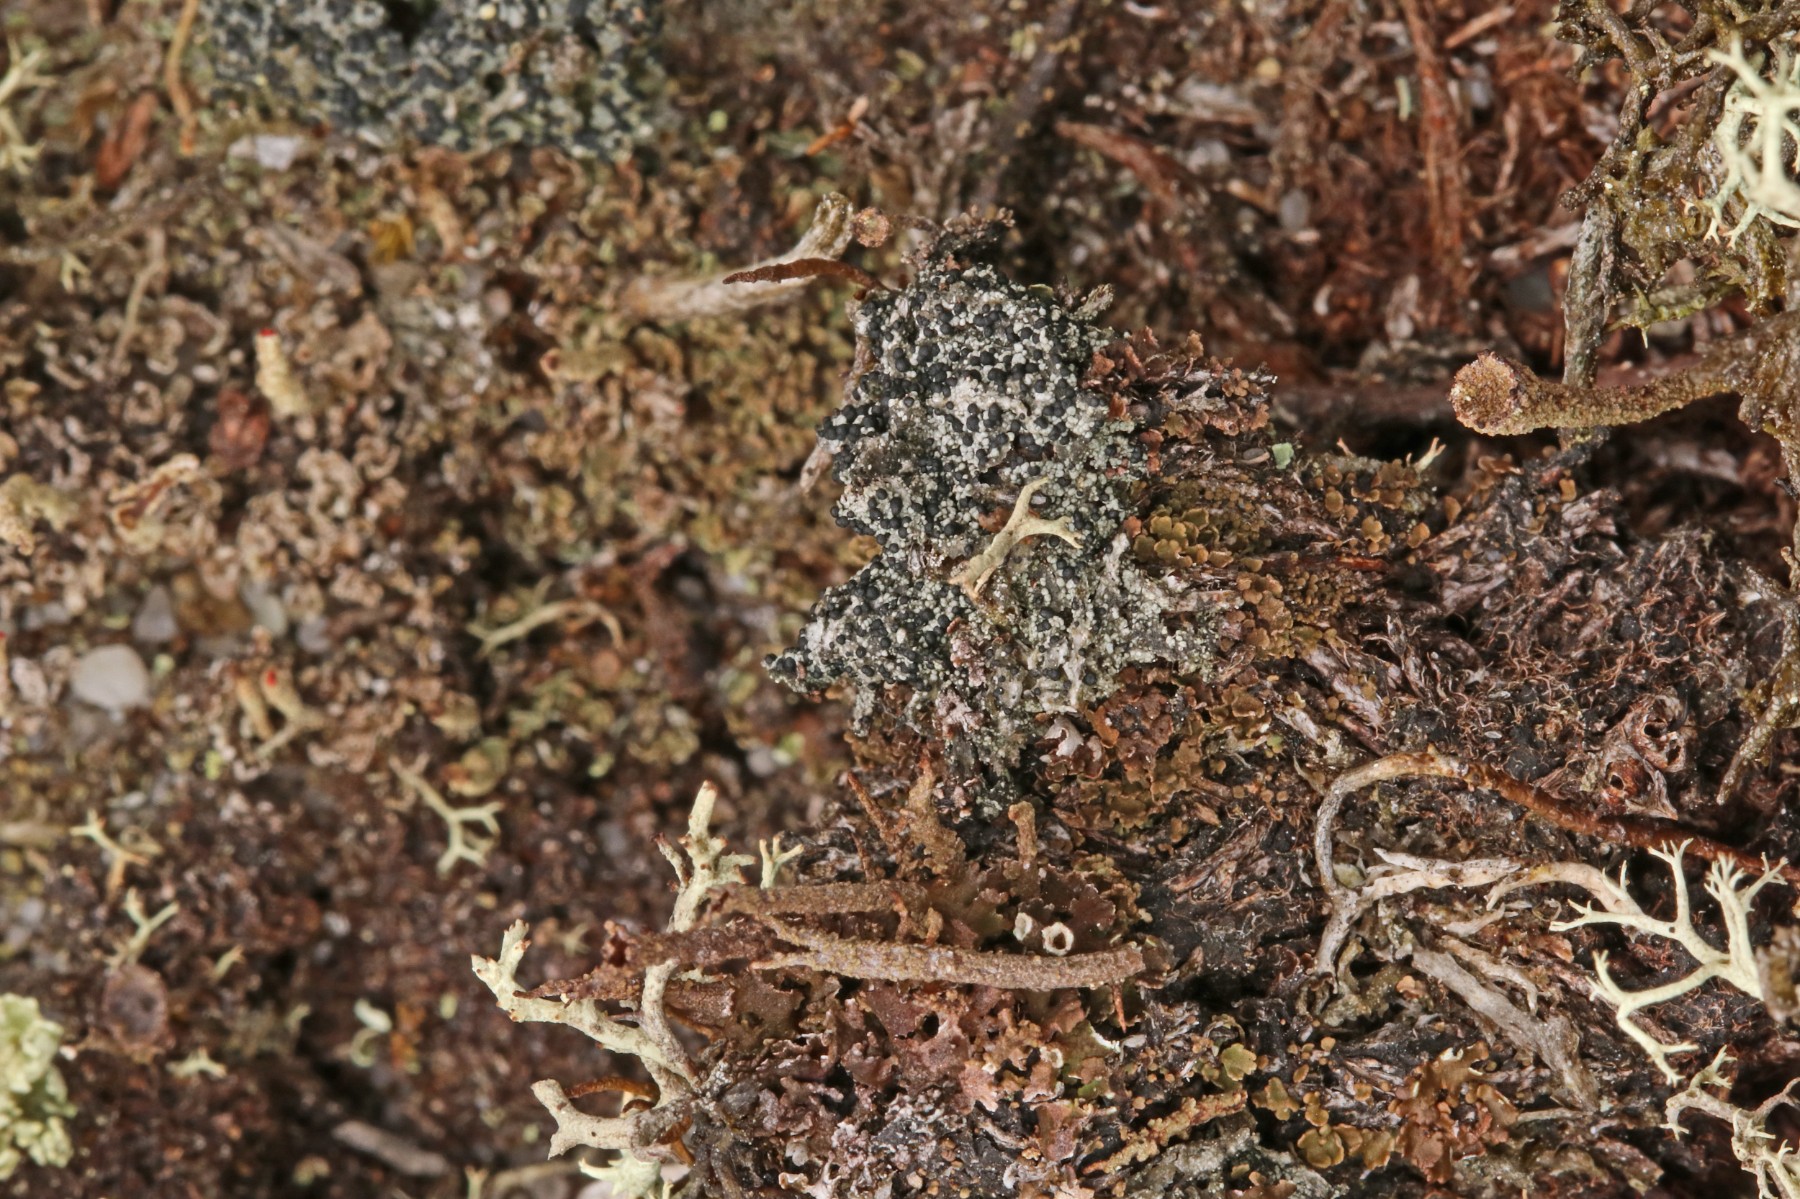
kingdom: Fungi
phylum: Ascomycota
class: Lecanoromycetes
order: Lecanorales
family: Byssolomataceae
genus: Micarea
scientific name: Micarea lignaria
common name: tørve-knaplav
